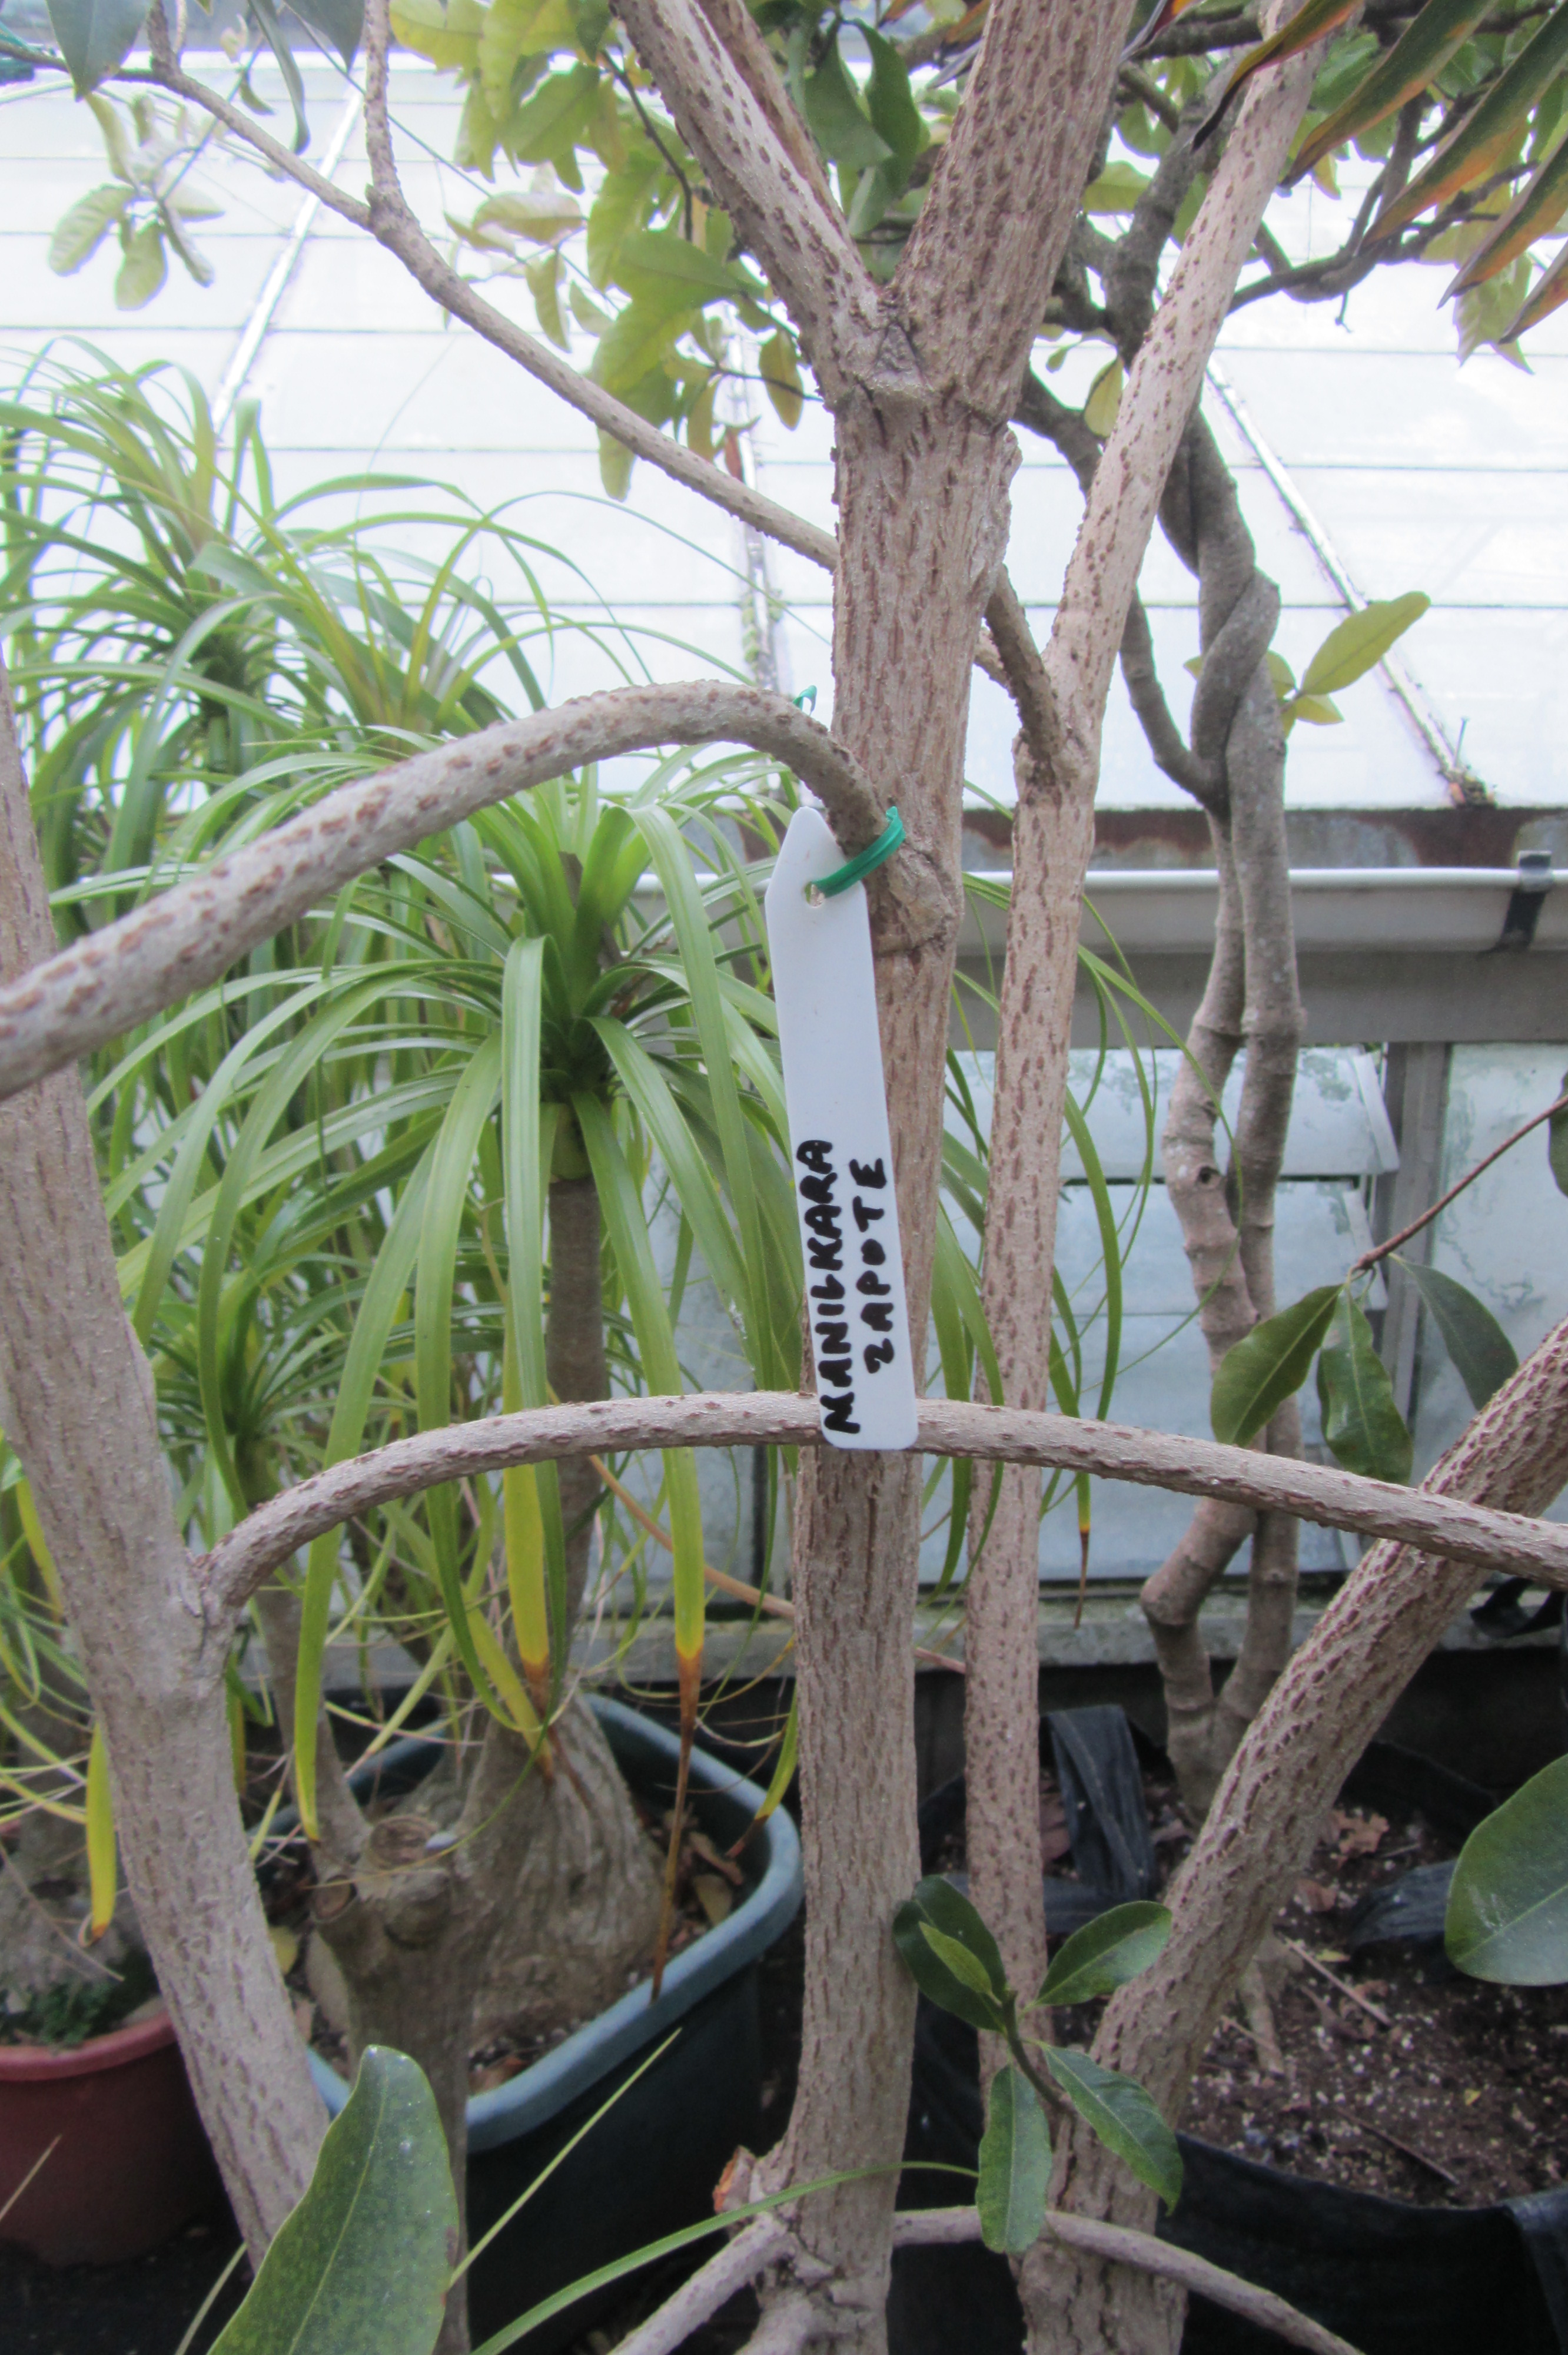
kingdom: Plantae
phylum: Tracheophyta
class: Magnoliopsida
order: Ericales
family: Sapotaceae
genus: Manilkara
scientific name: Manilkara zapota
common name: Sapodilla
